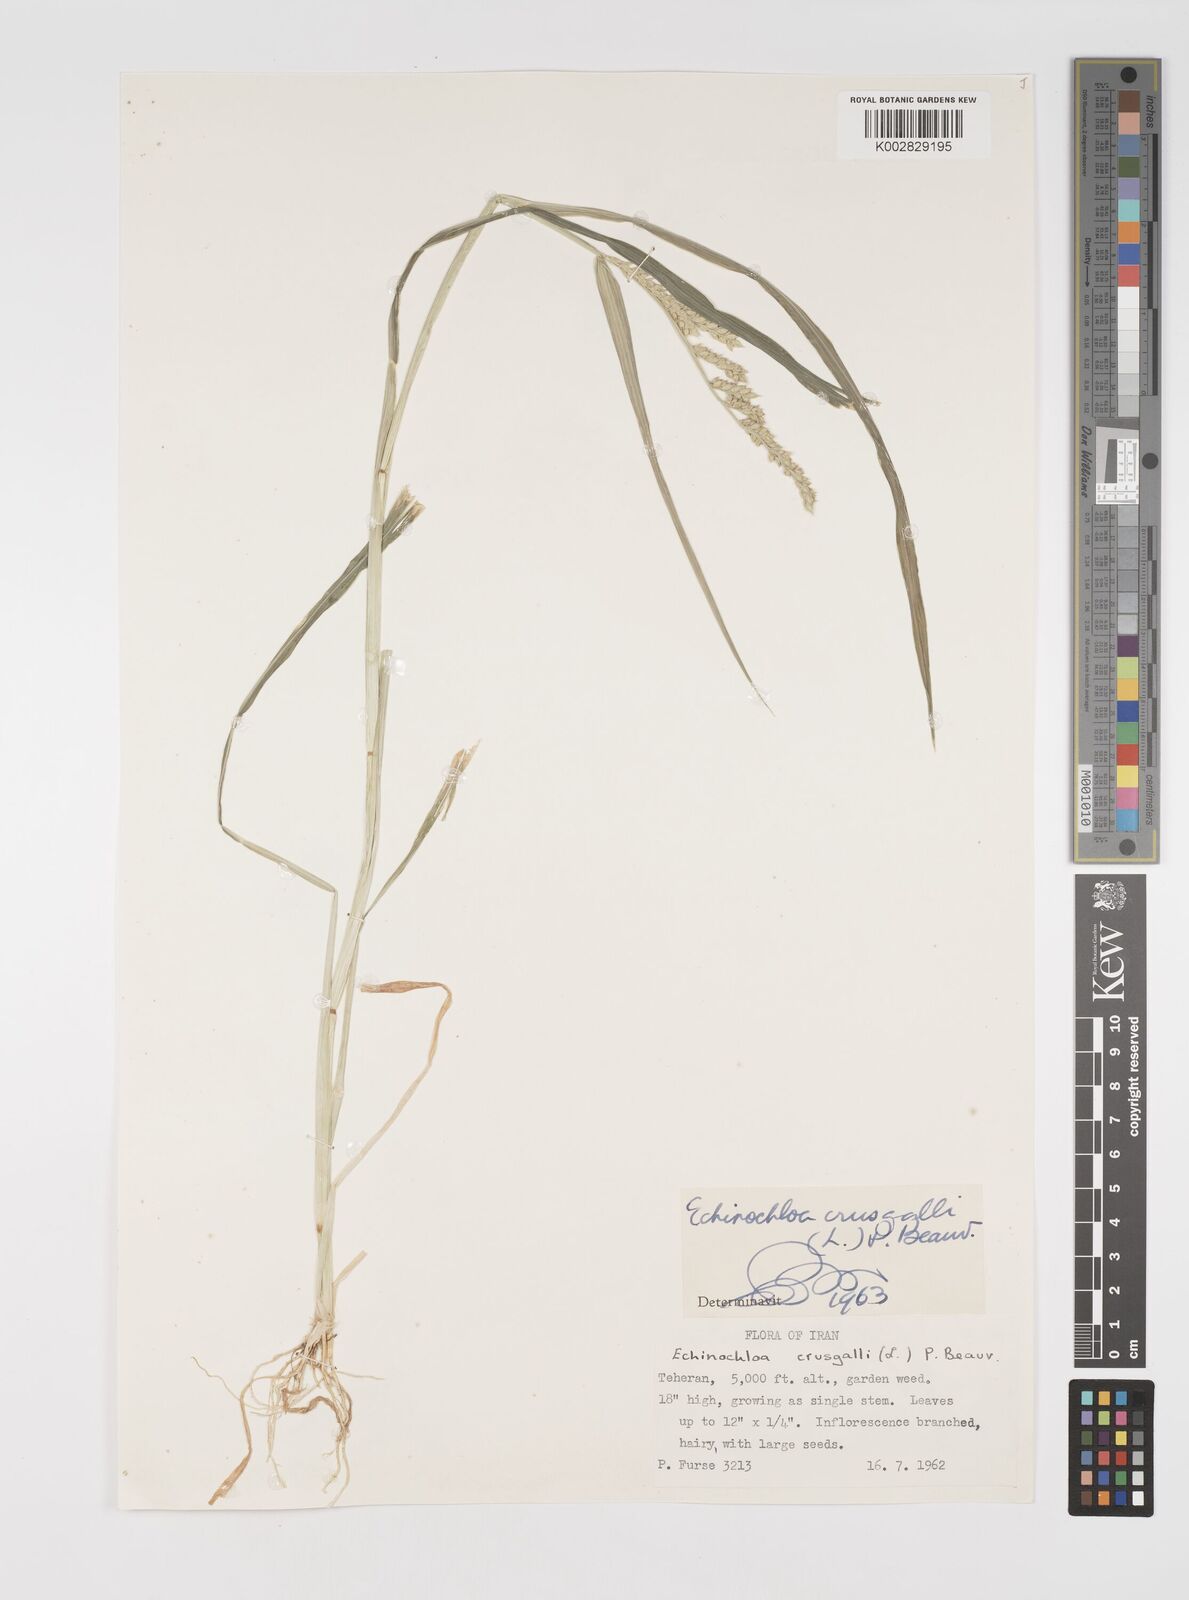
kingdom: Plantae
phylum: Tracheophyta
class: Liliopsida
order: Poales
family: Poaceae
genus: Echinochloa
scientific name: Echinochloa crus-galli
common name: Cockspur
